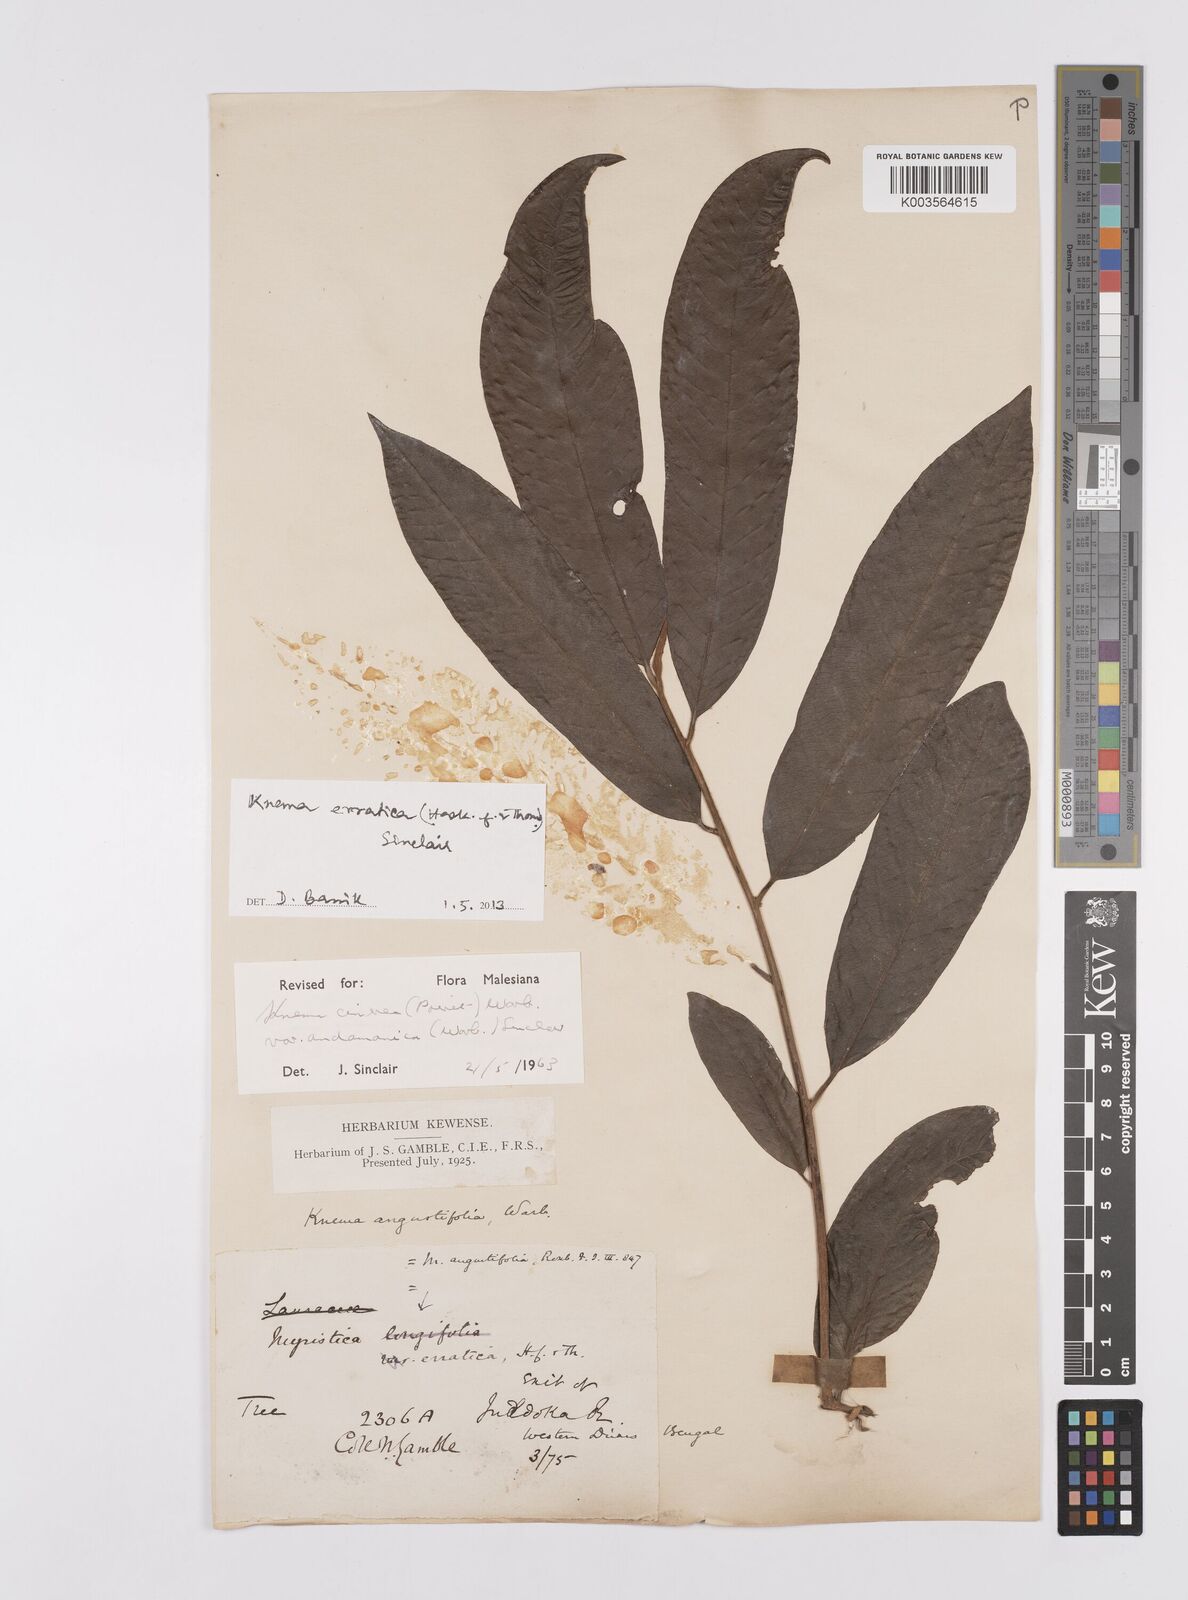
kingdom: Plantae
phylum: Tracheophyta
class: Magnoliopsida
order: Magnoliales
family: Myristicaceae
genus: Knema
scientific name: Knema
